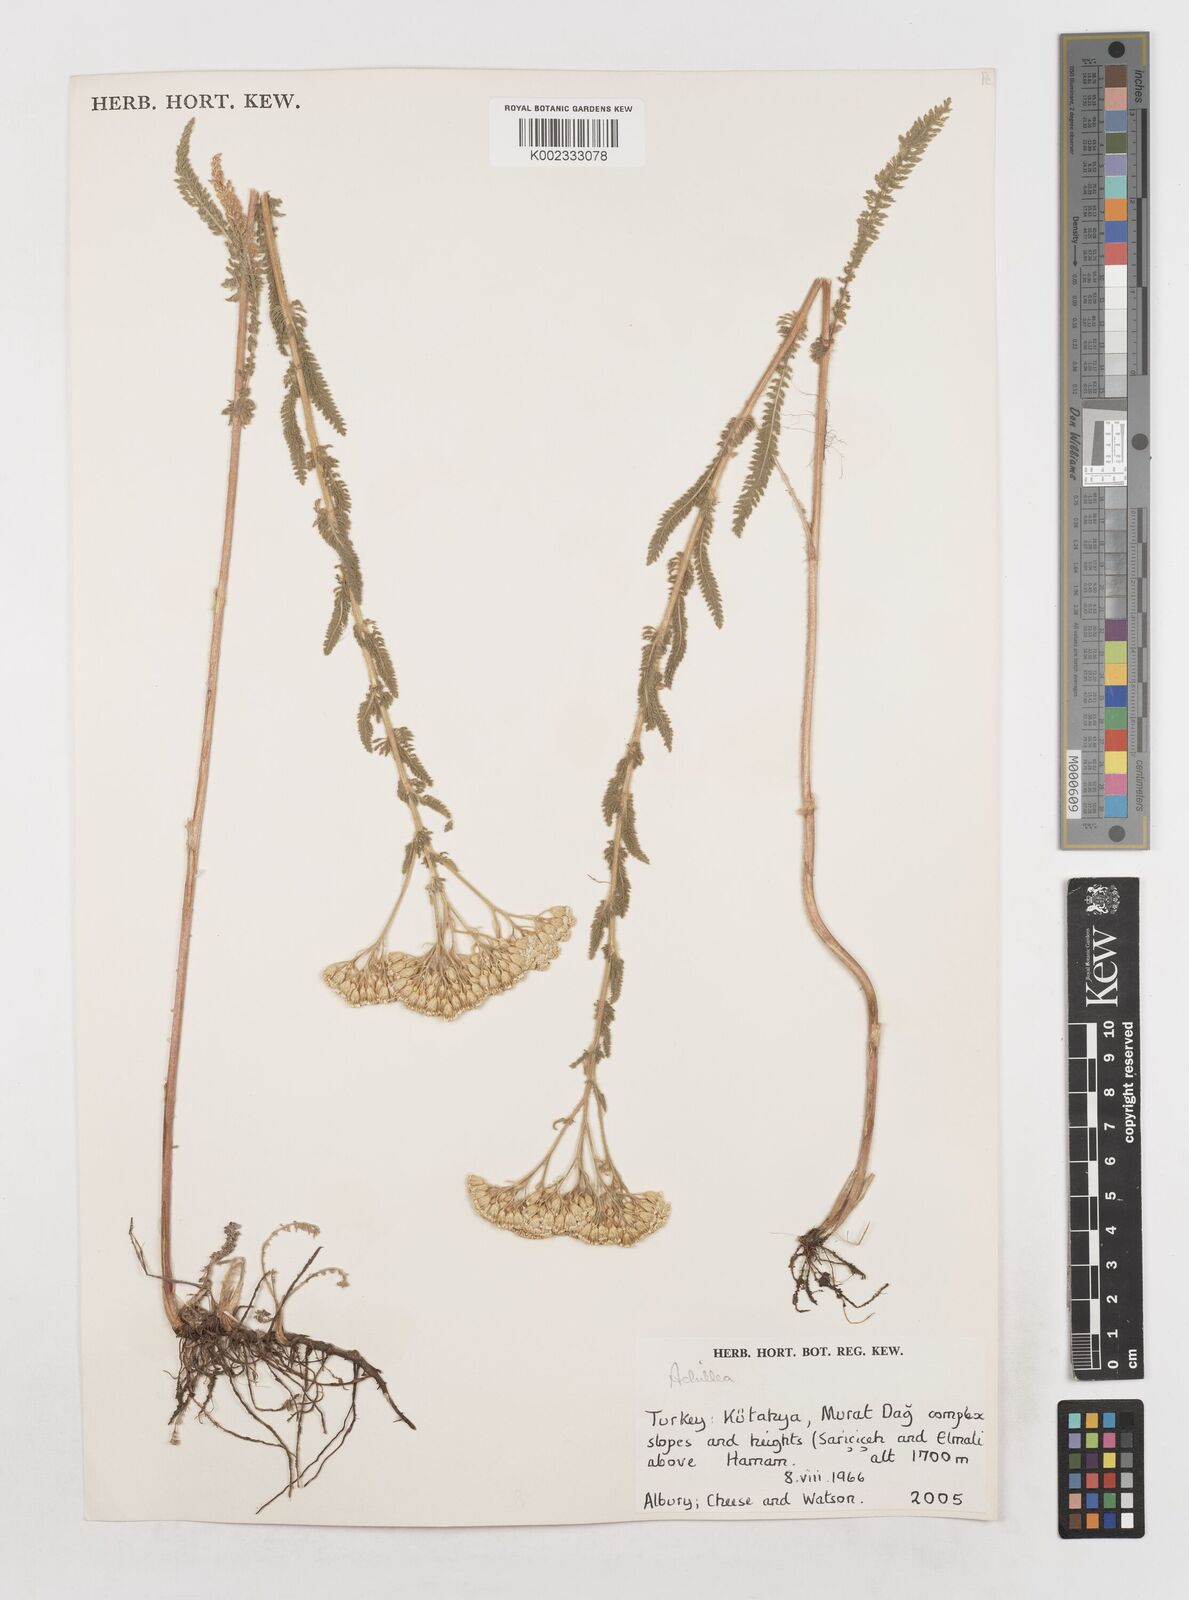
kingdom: Plantae
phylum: Tracheophyta
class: Magnoliopsida
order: Asterales
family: Asteraceae
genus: Achillea
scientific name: Achillea
